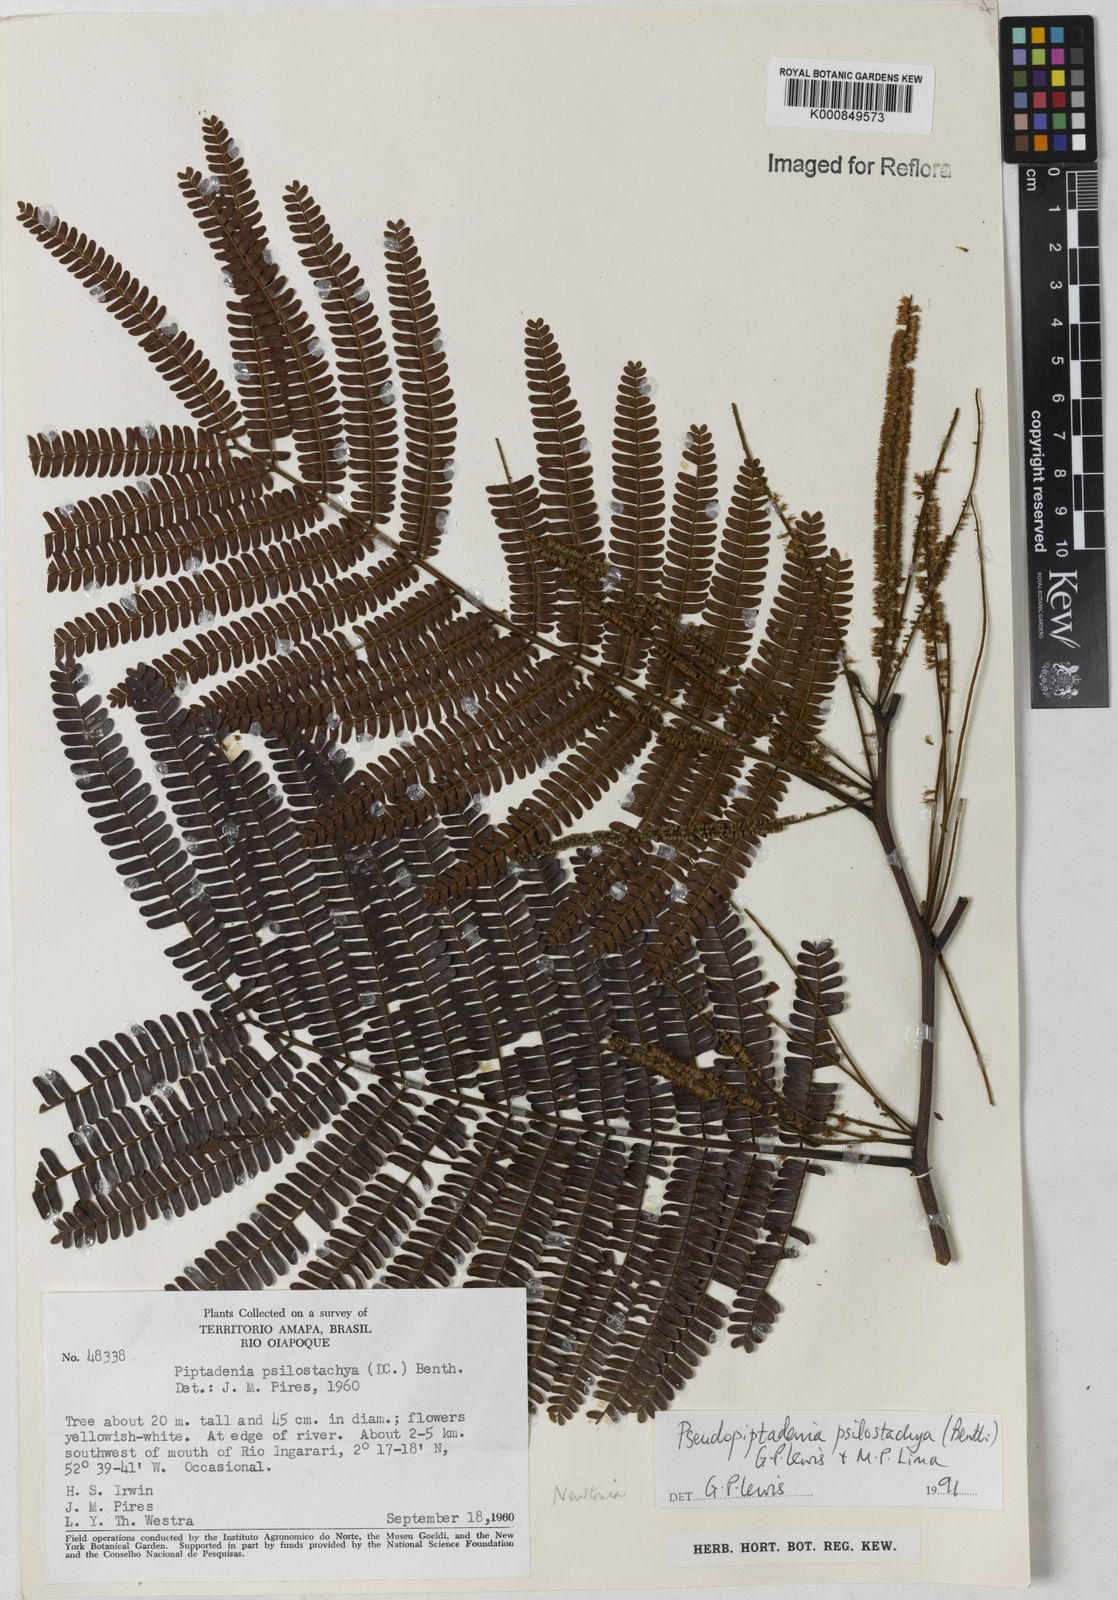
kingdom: Plantae
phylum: Tracheophyta
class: Magnoliopsida
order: Fabales
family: Fabaceae
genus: Pseudopiptadenia
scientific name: Pseudopiptadenia psilostachya
